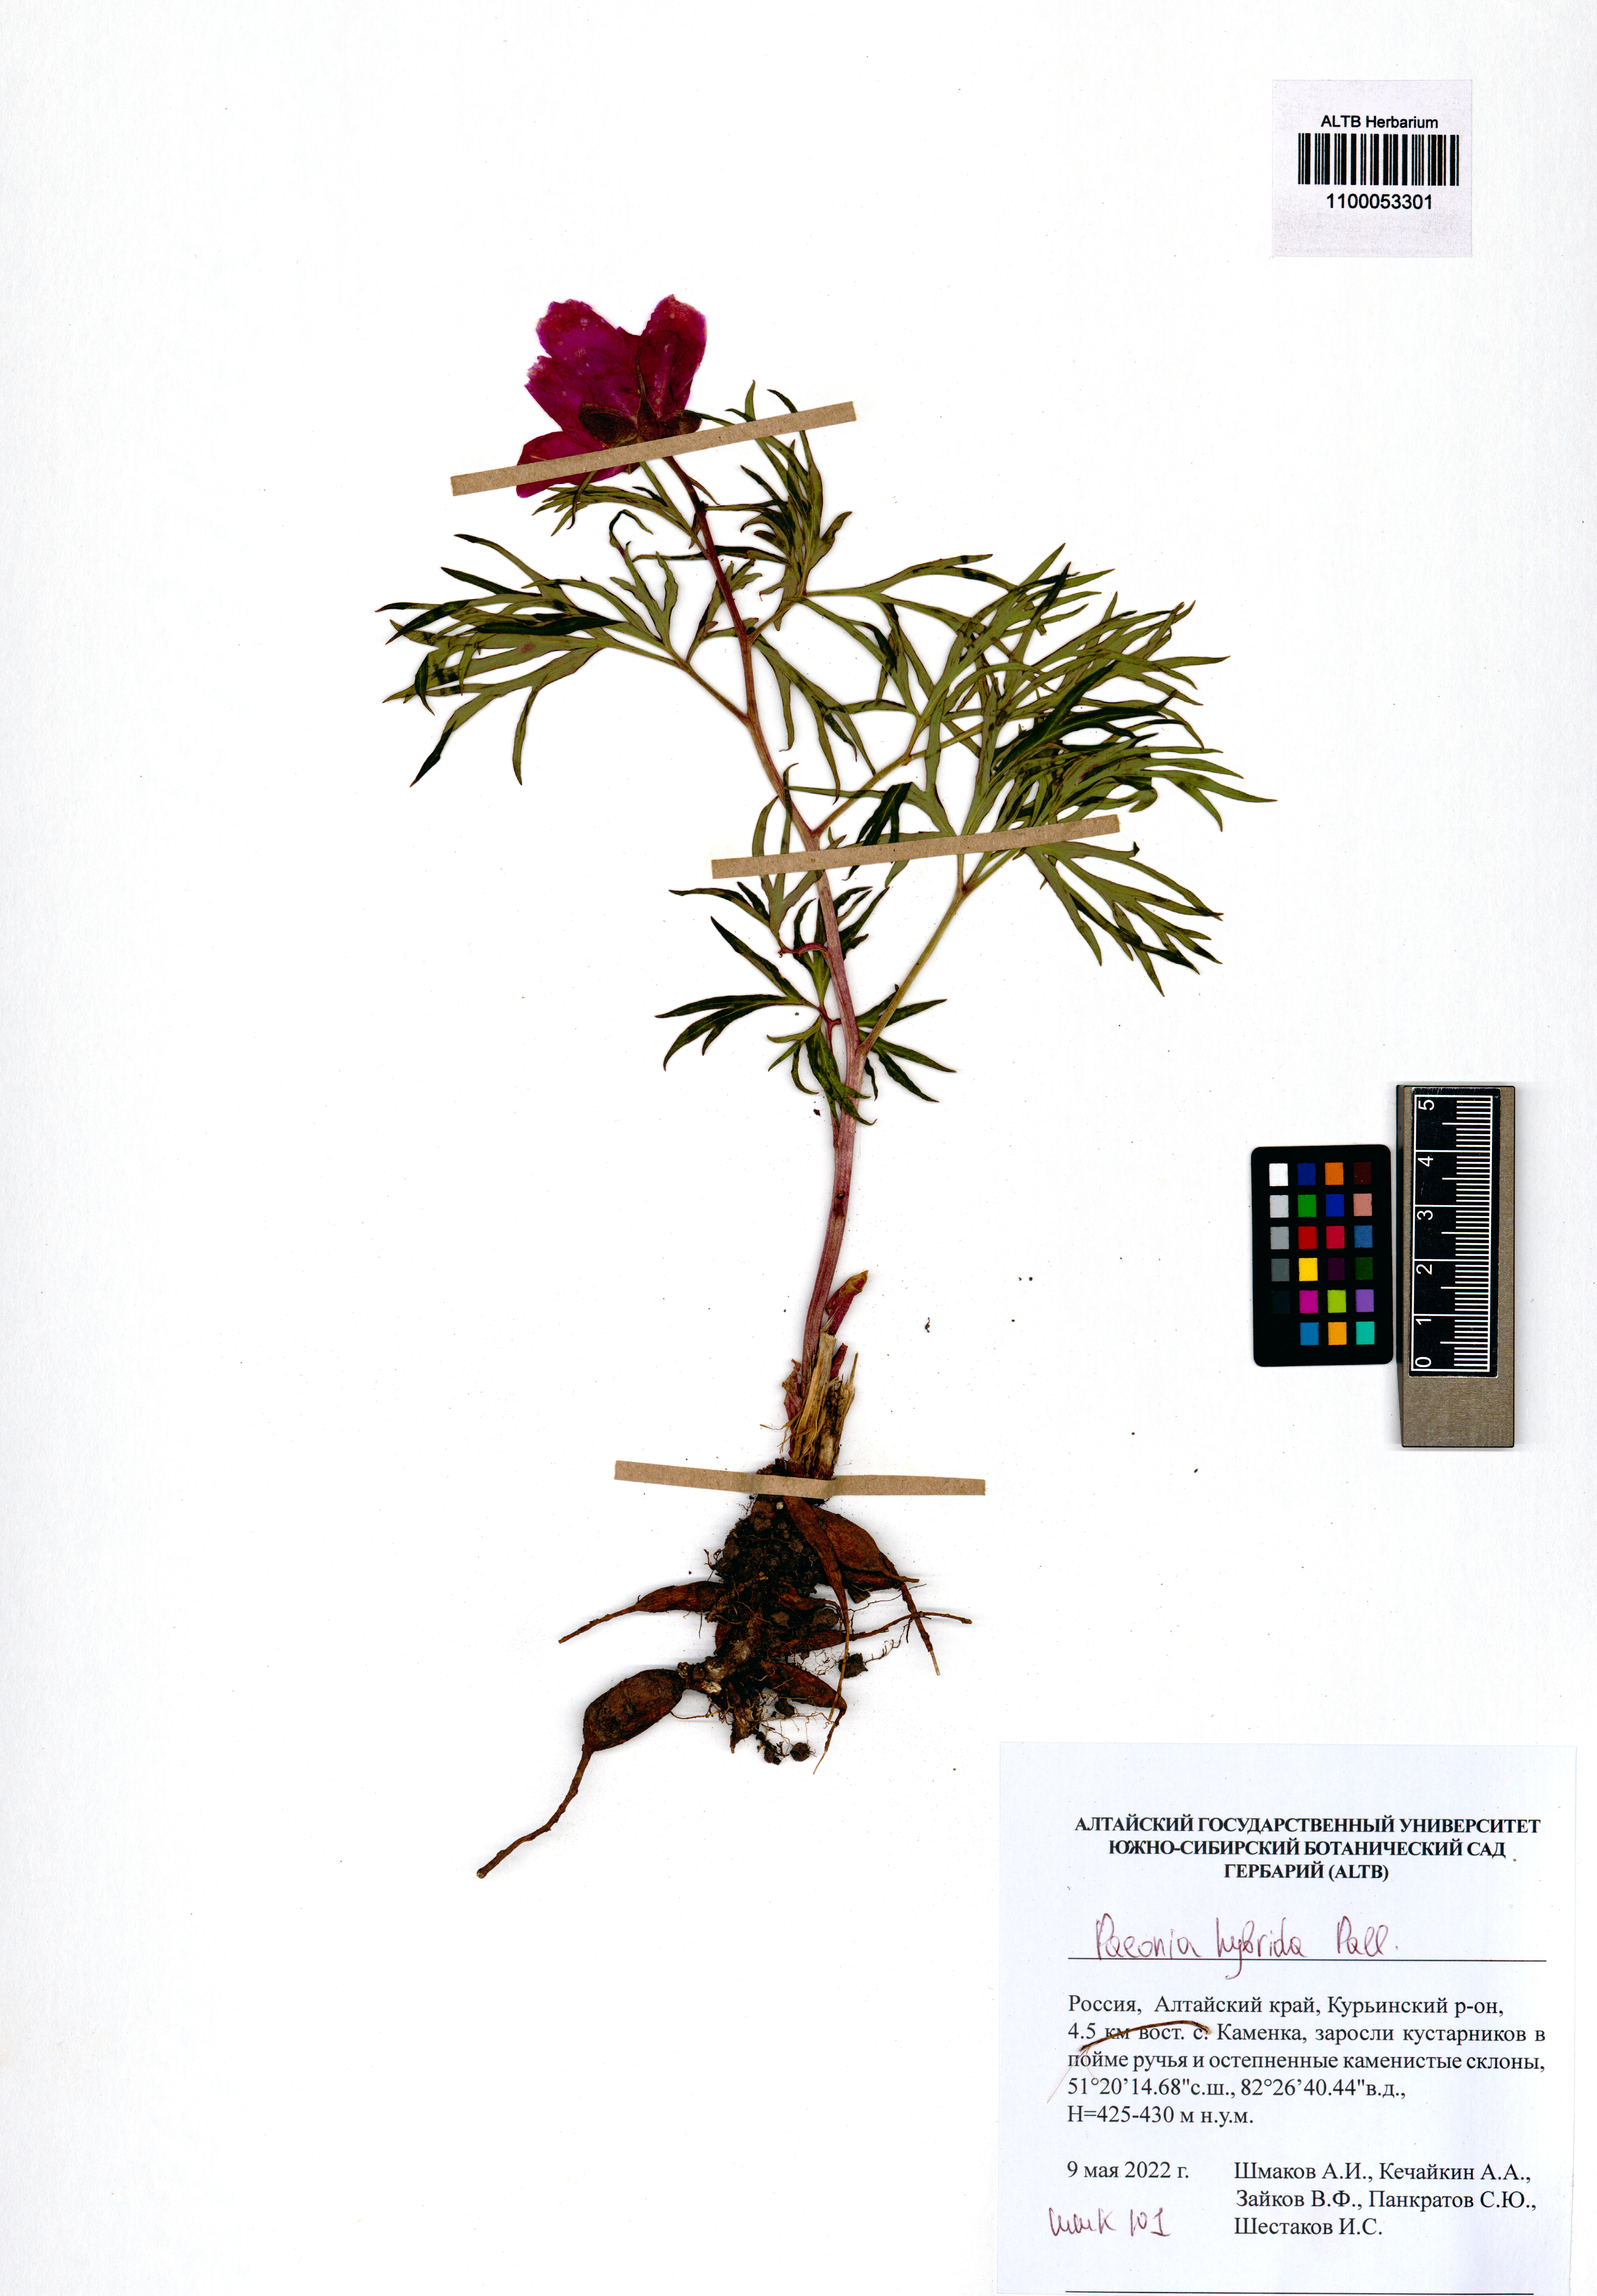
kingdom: Plantae
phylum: Tracheophyta
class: Magnoliopsida
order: Saxifragales
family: Paeoniaceae
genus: Paeonia
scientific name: Paeonia
